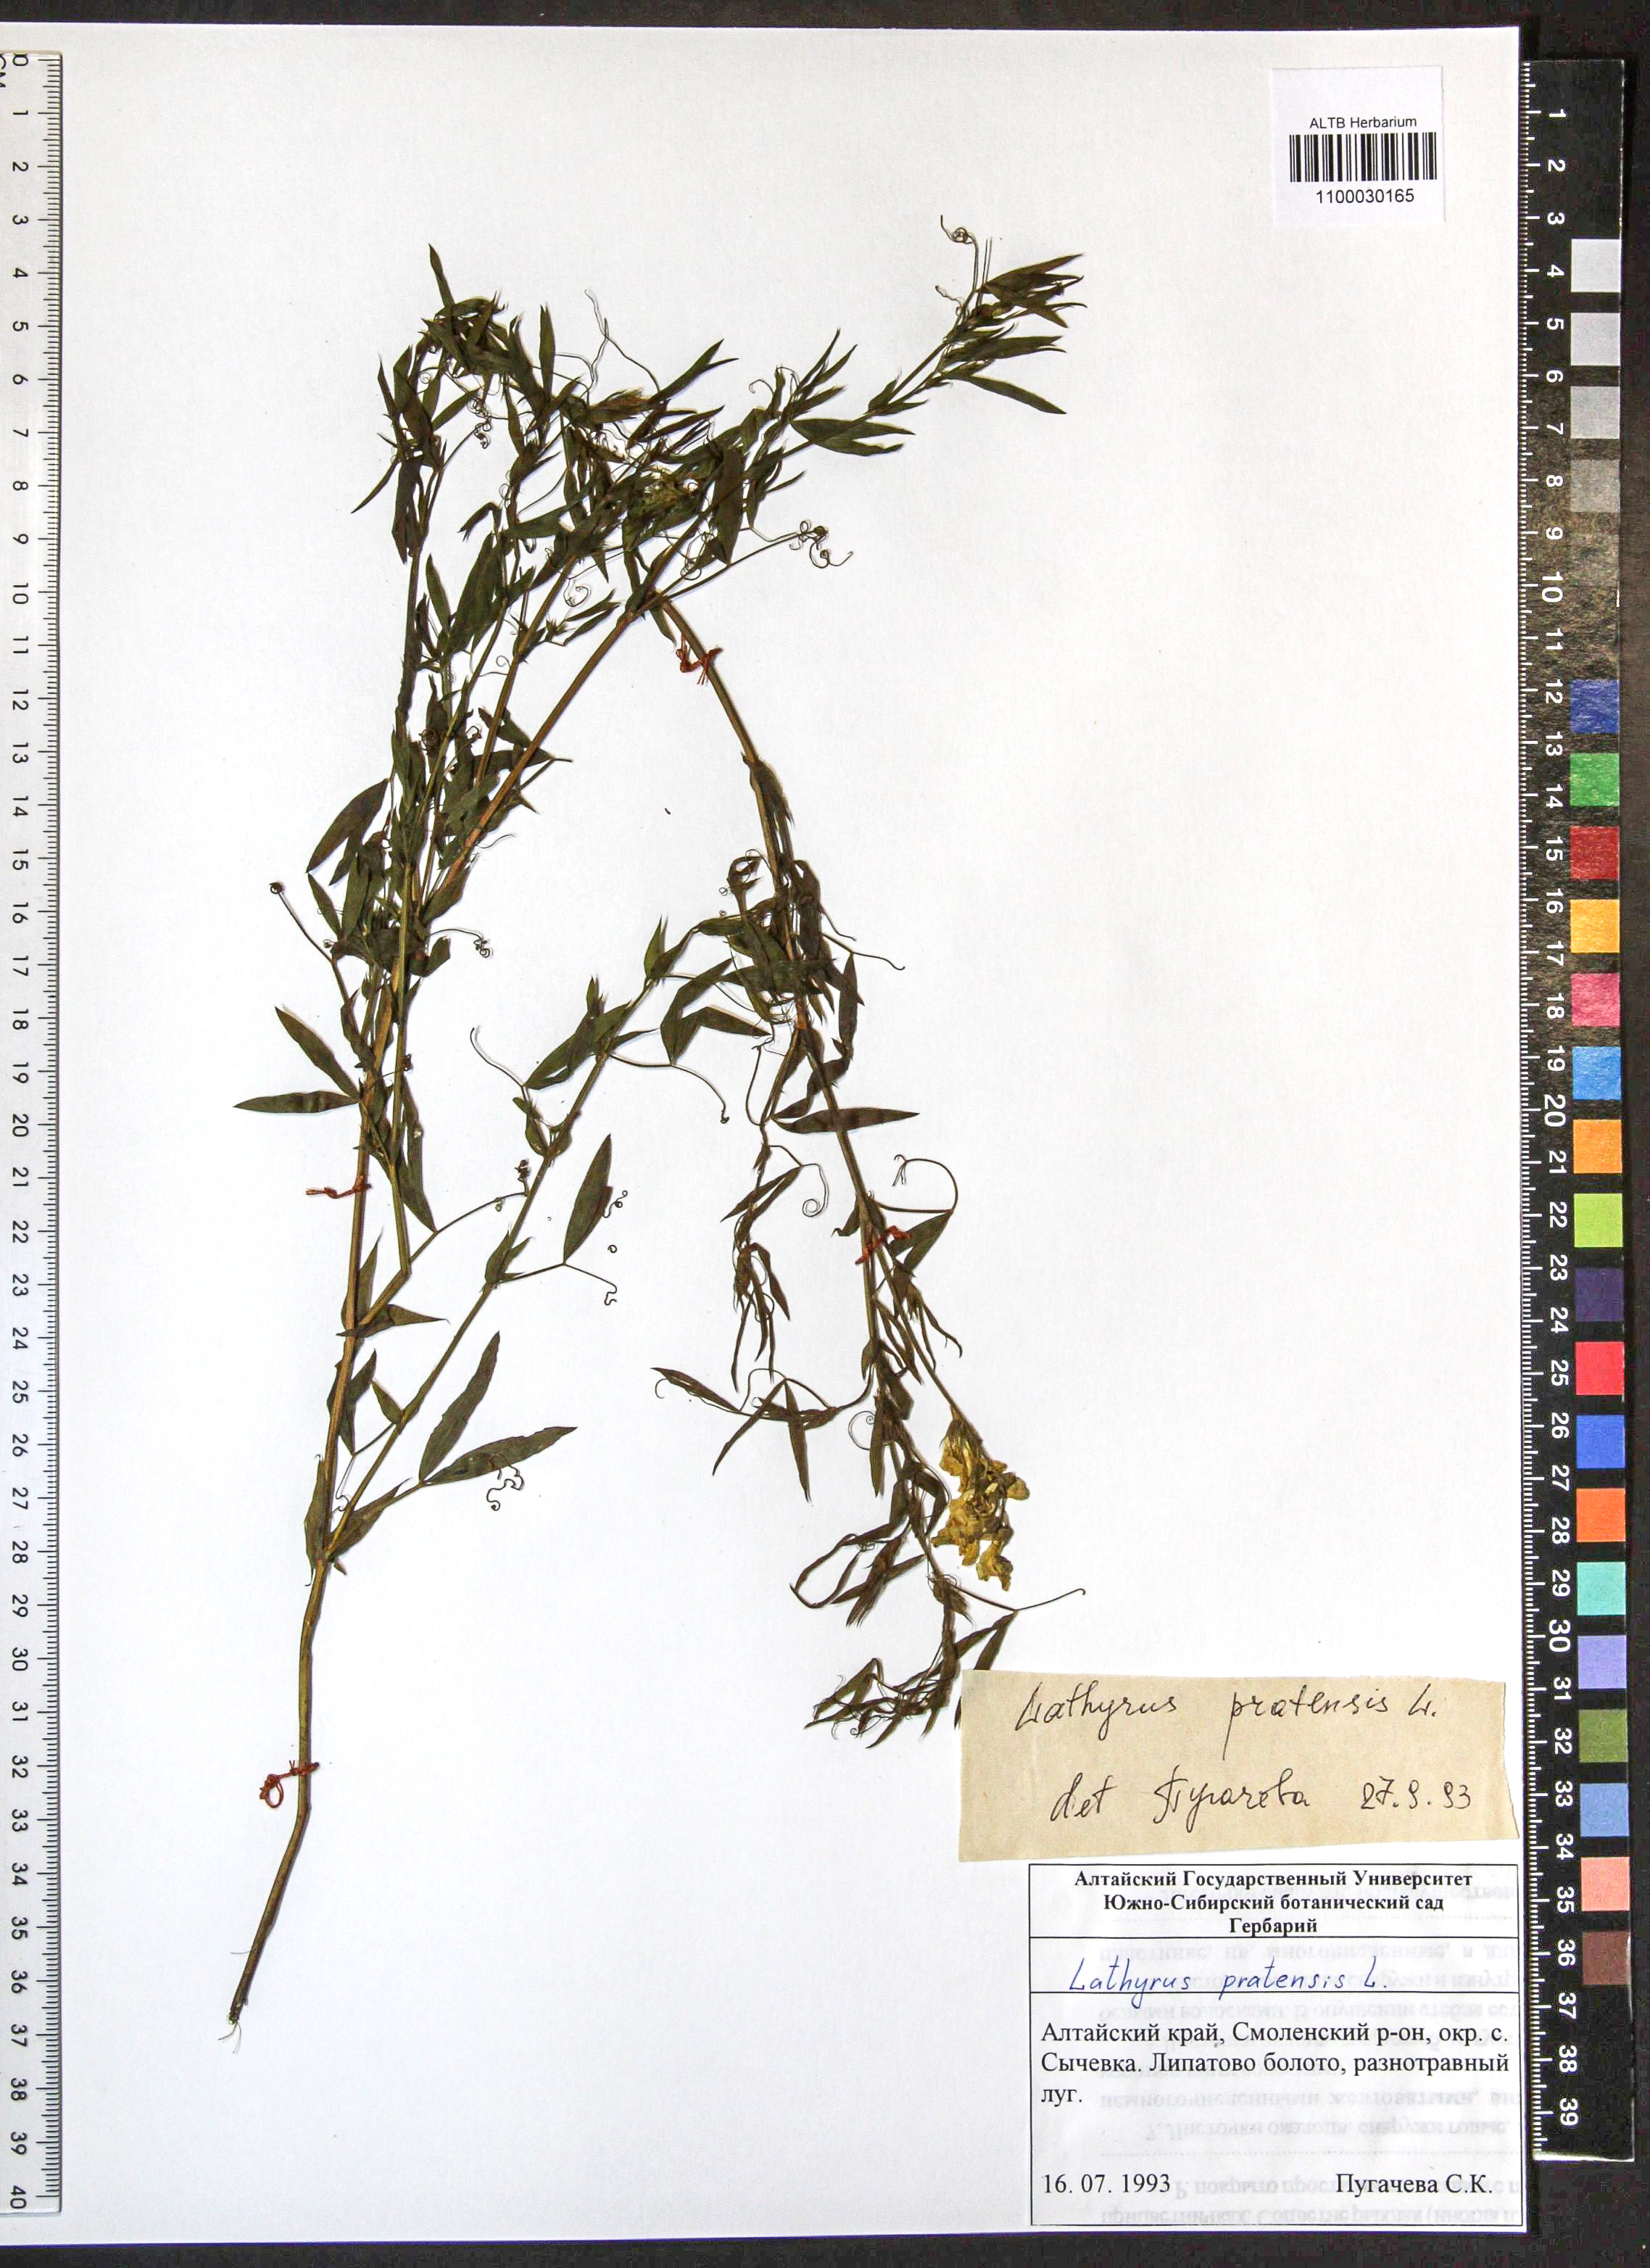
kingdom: Plantae
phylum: Tracheophyta
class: Magnoliopsida
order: Fabales
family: Fabaceae
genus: Lathyrus
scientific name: Lathyrus pratensis
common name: Meadow vetchling
